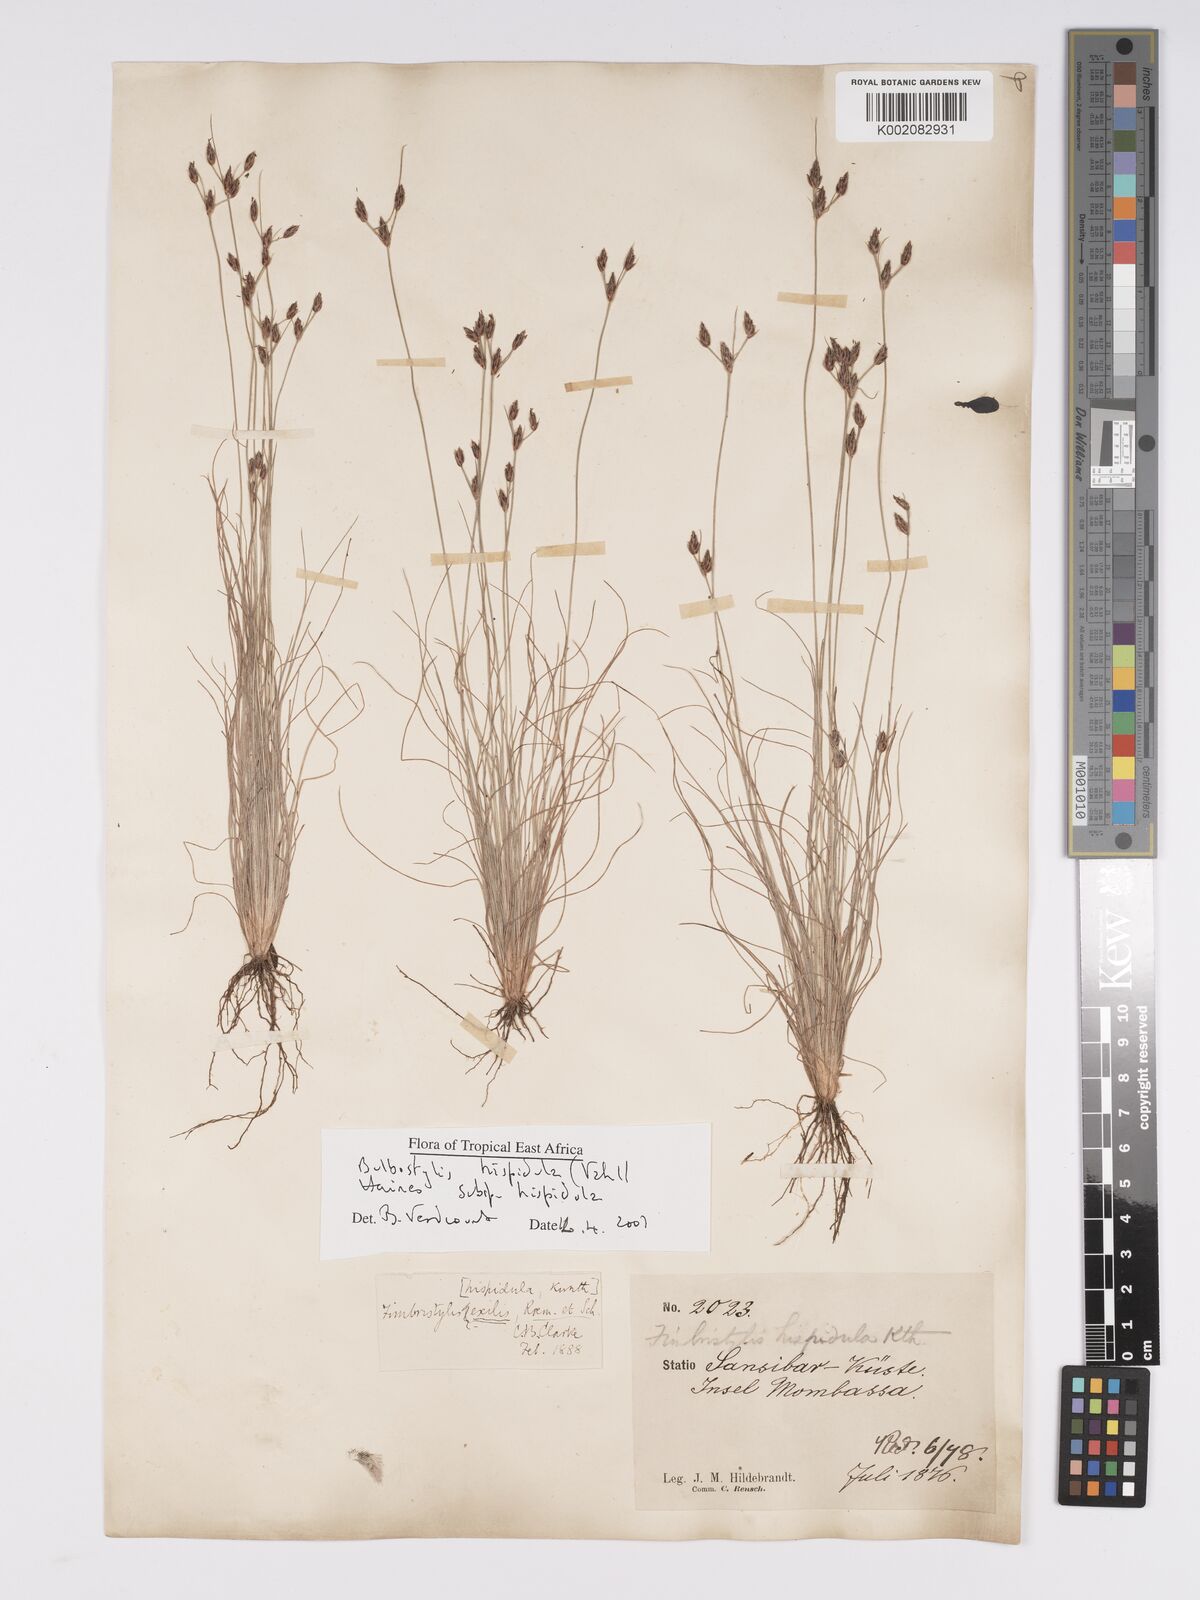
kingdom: Plantae
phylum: Tracheophyta
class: Liliopsida
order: Poales
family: Cyperaceae
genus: Bulbostylis
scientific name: Bulbostylis hispidula
